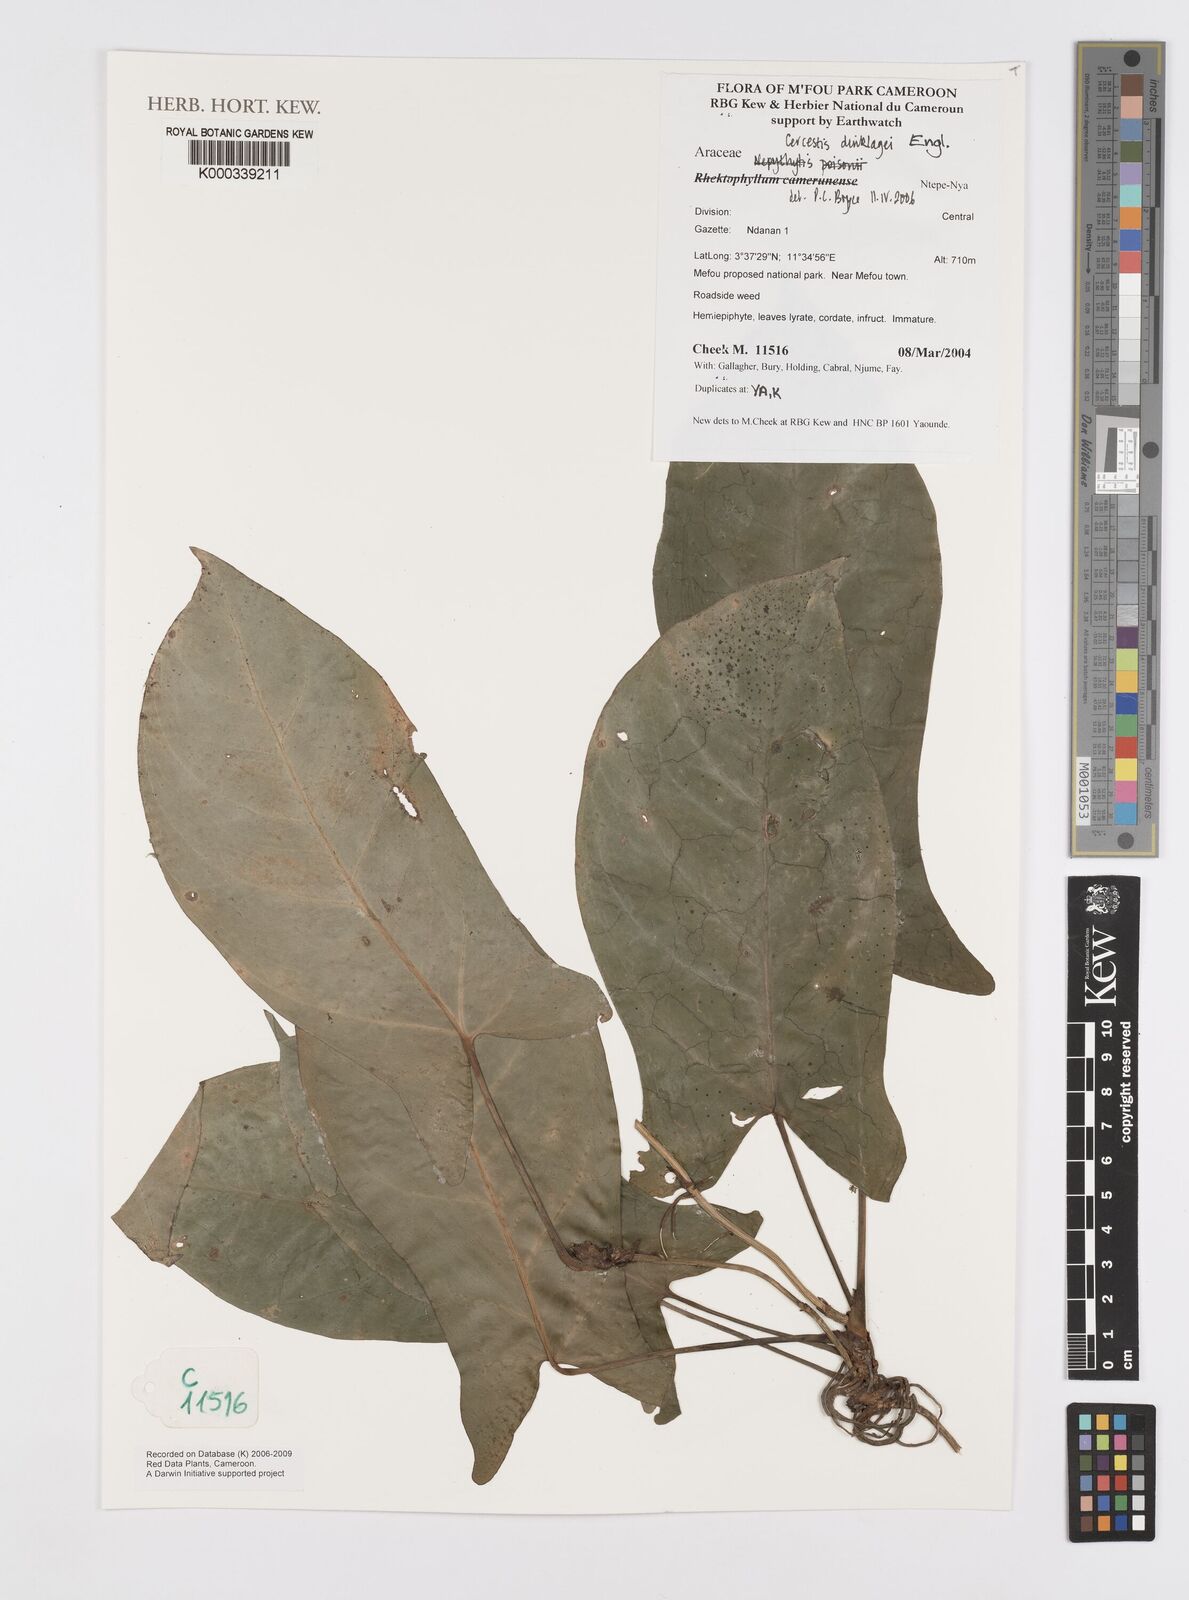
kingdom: Plantae
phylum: Tracheophyta
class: Liliopsida
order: Alismatales
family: Araceae
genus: Cercestis
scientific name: Cercestis dinklagei
